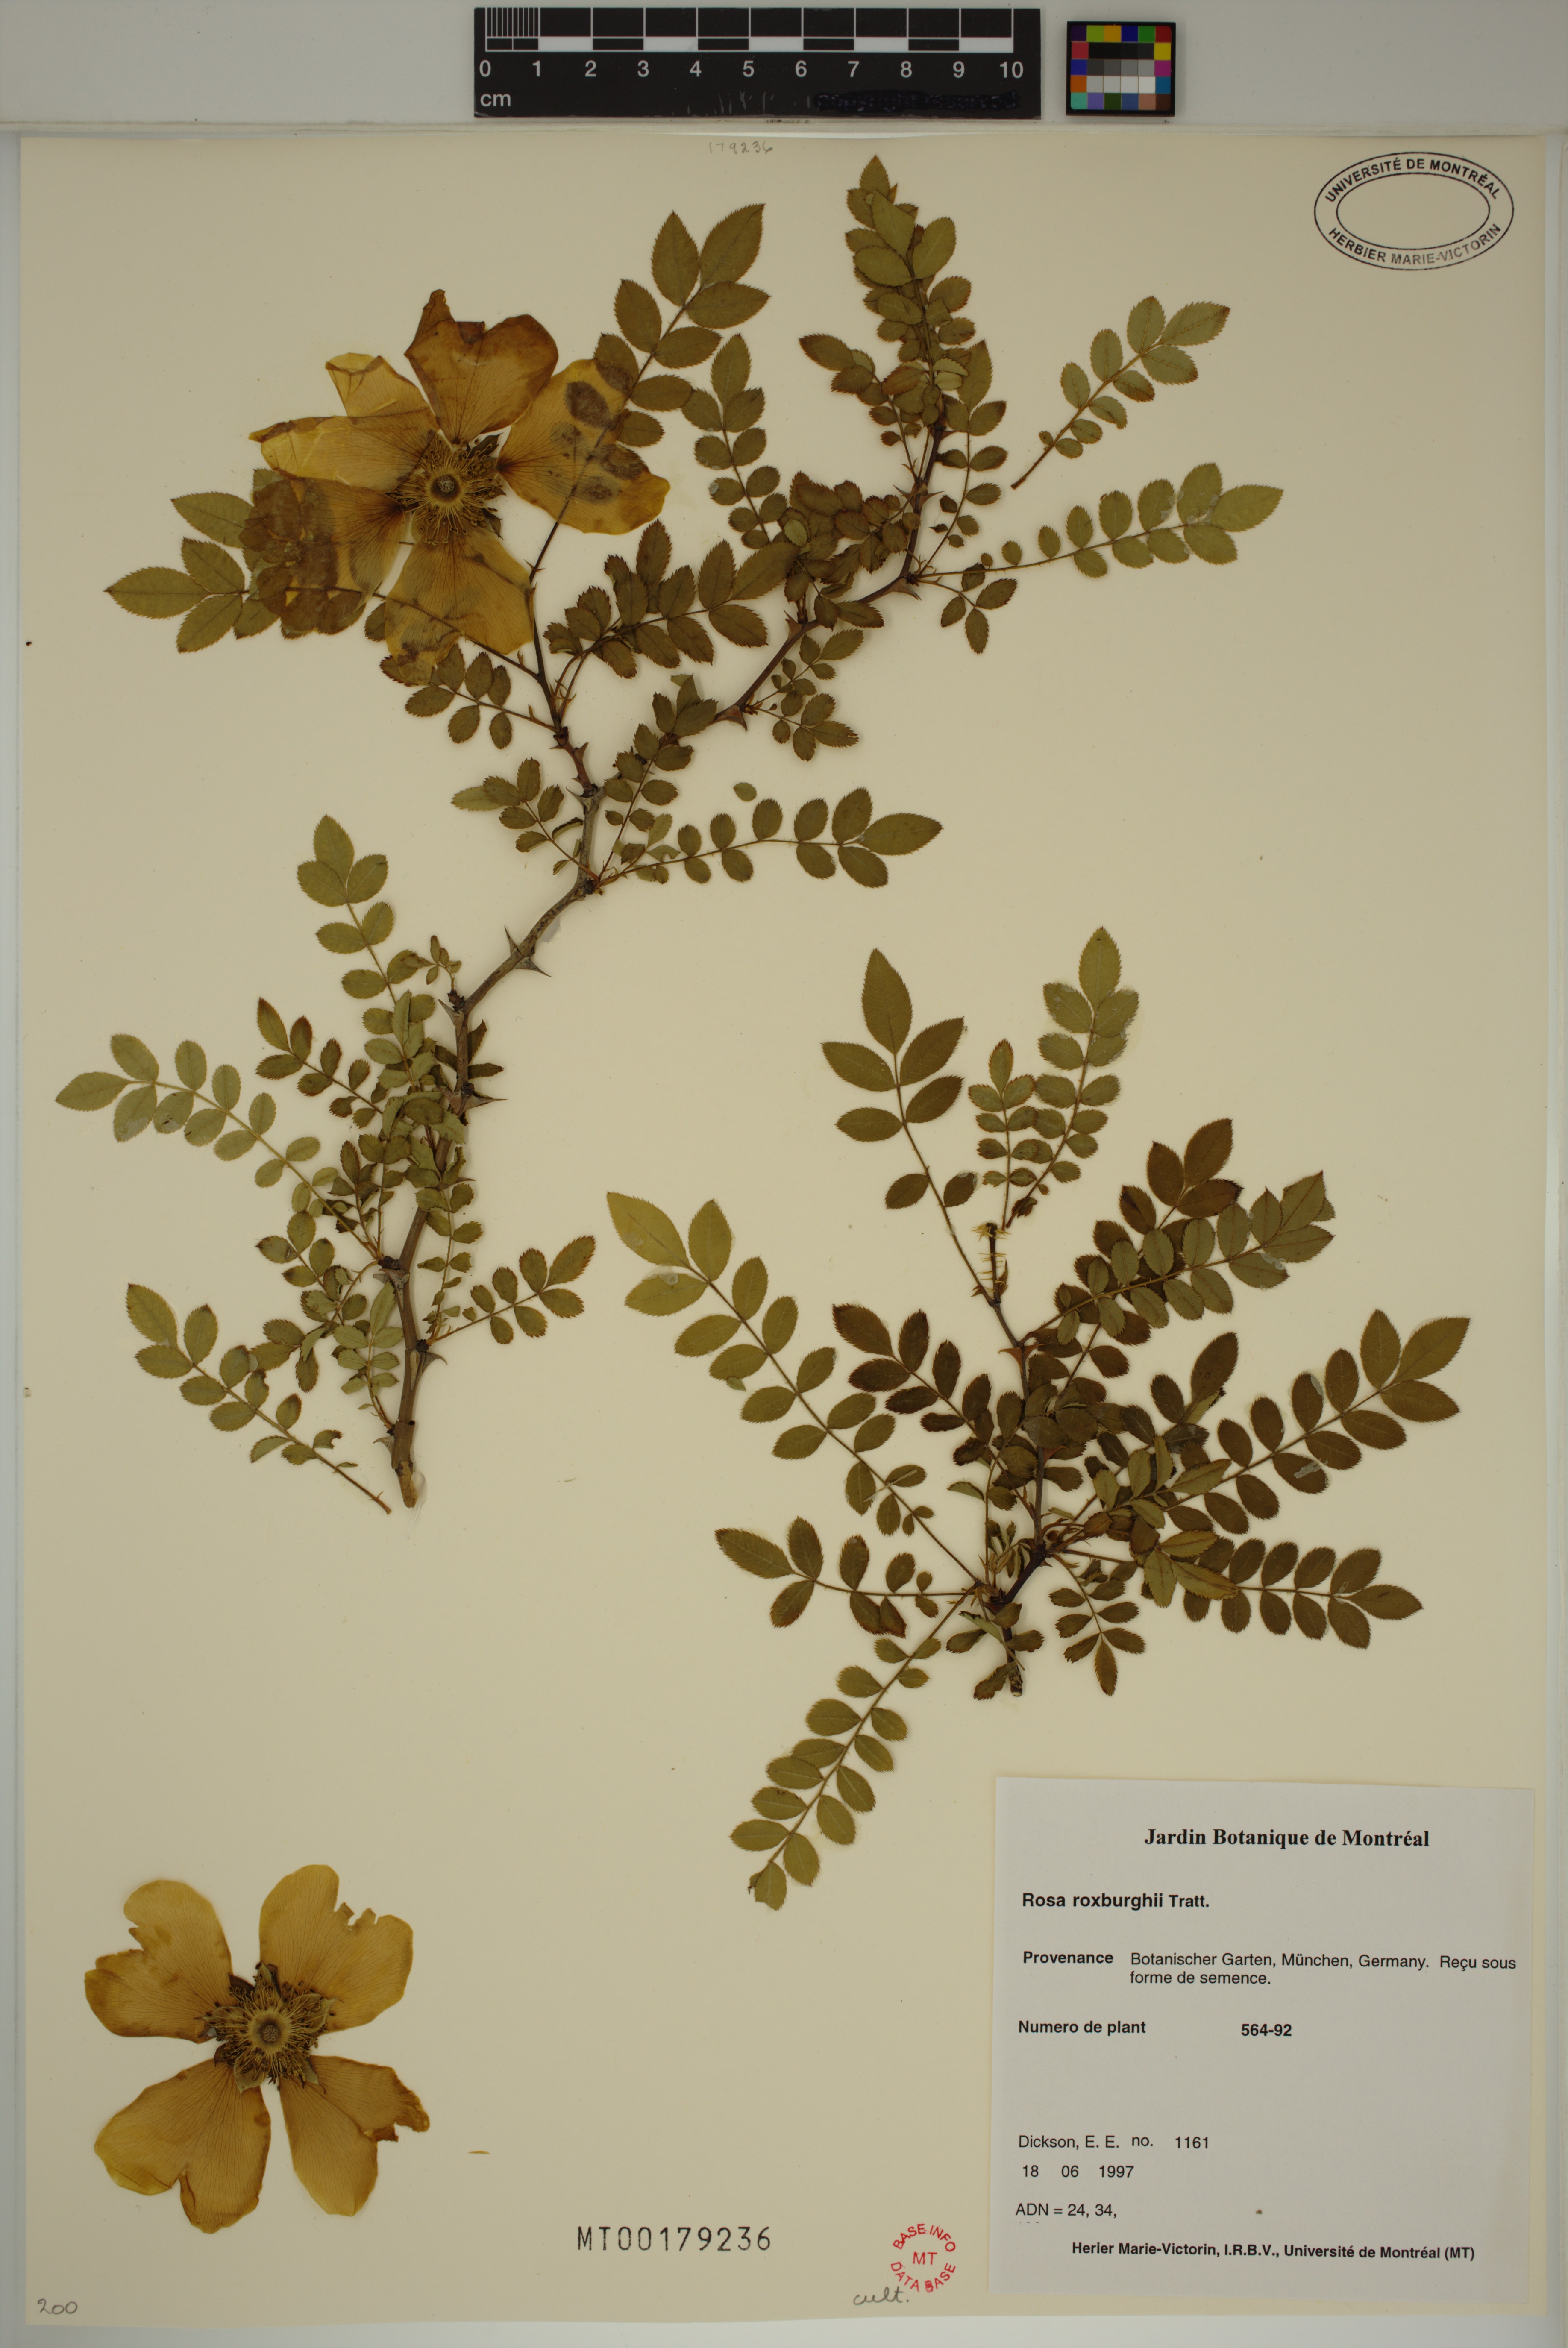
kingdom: Plantae
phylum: Tracheophyta
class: Magnoliopsida
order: Rosales
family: Rosaceae
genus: Rosa
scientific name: Rosa roxburghii
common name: Chinquapin rose
